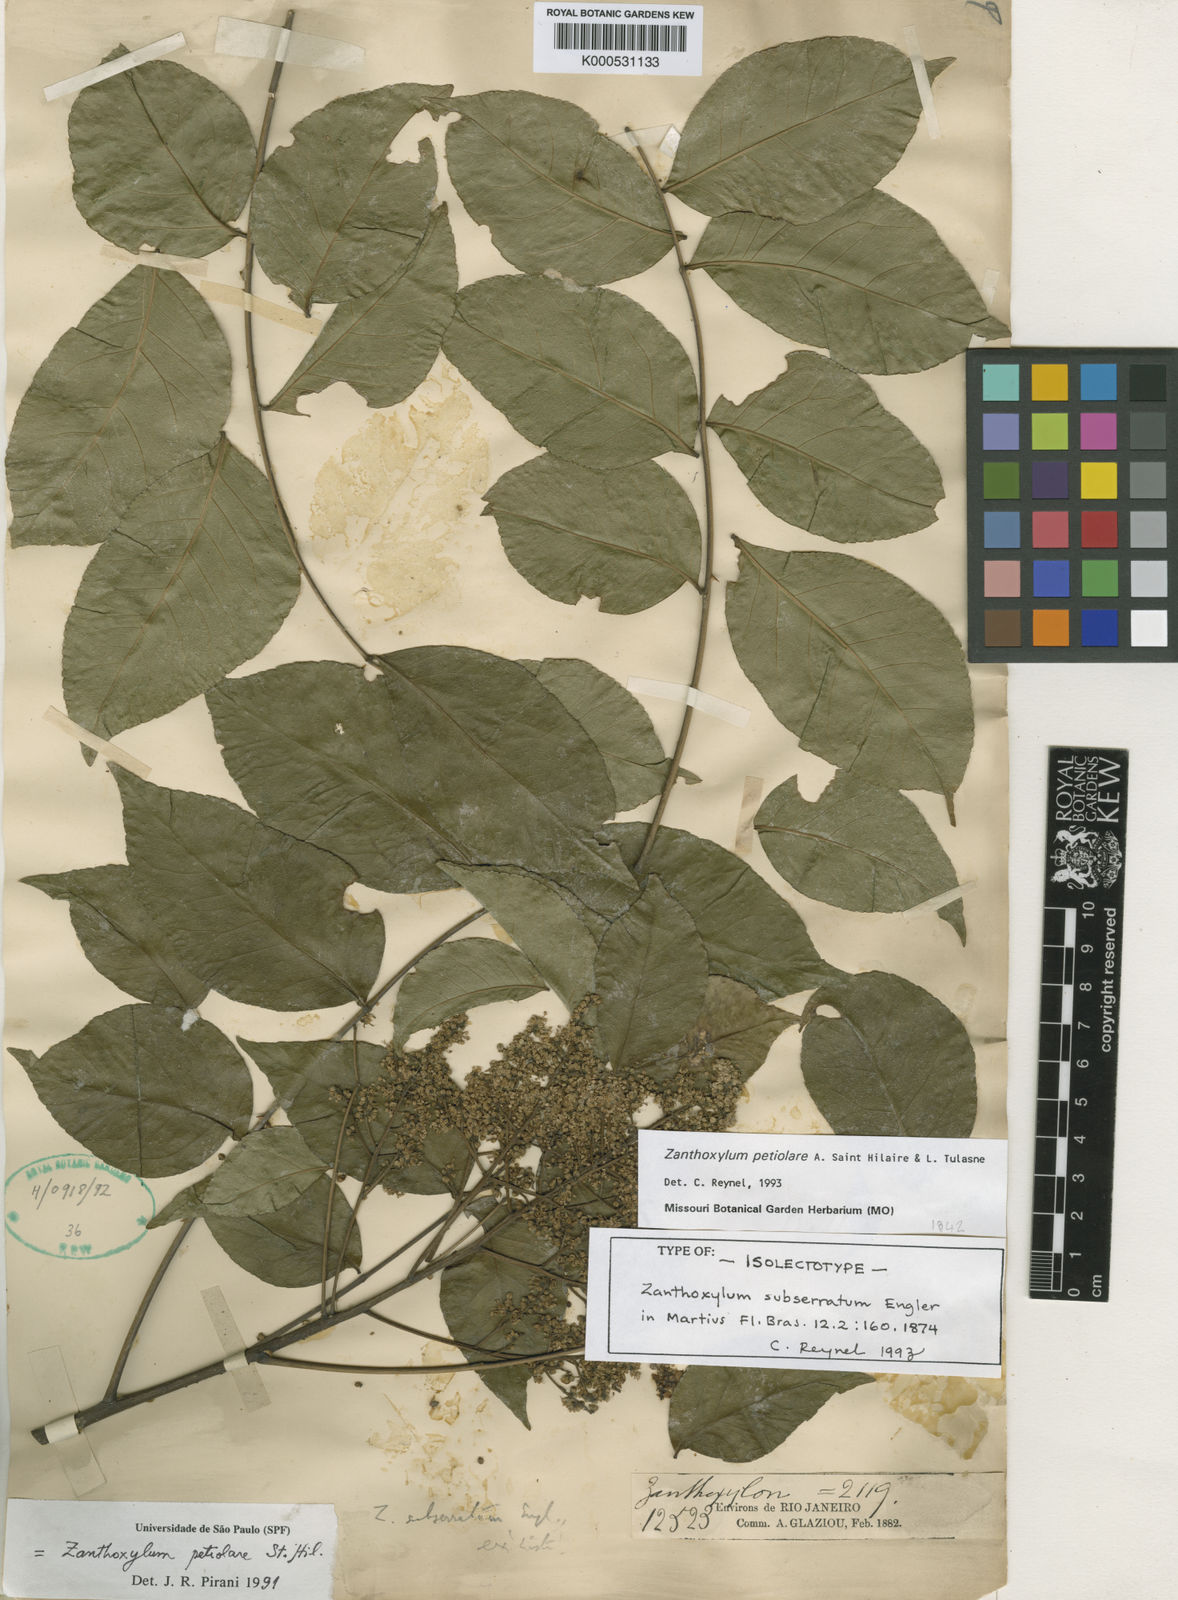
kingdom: Plantae
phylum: Tracheophyta
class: Magnoliopsida
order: Sapindales
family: Rutaceae
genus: Zanthoxylum
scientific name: Zanthoxylum petiolare
